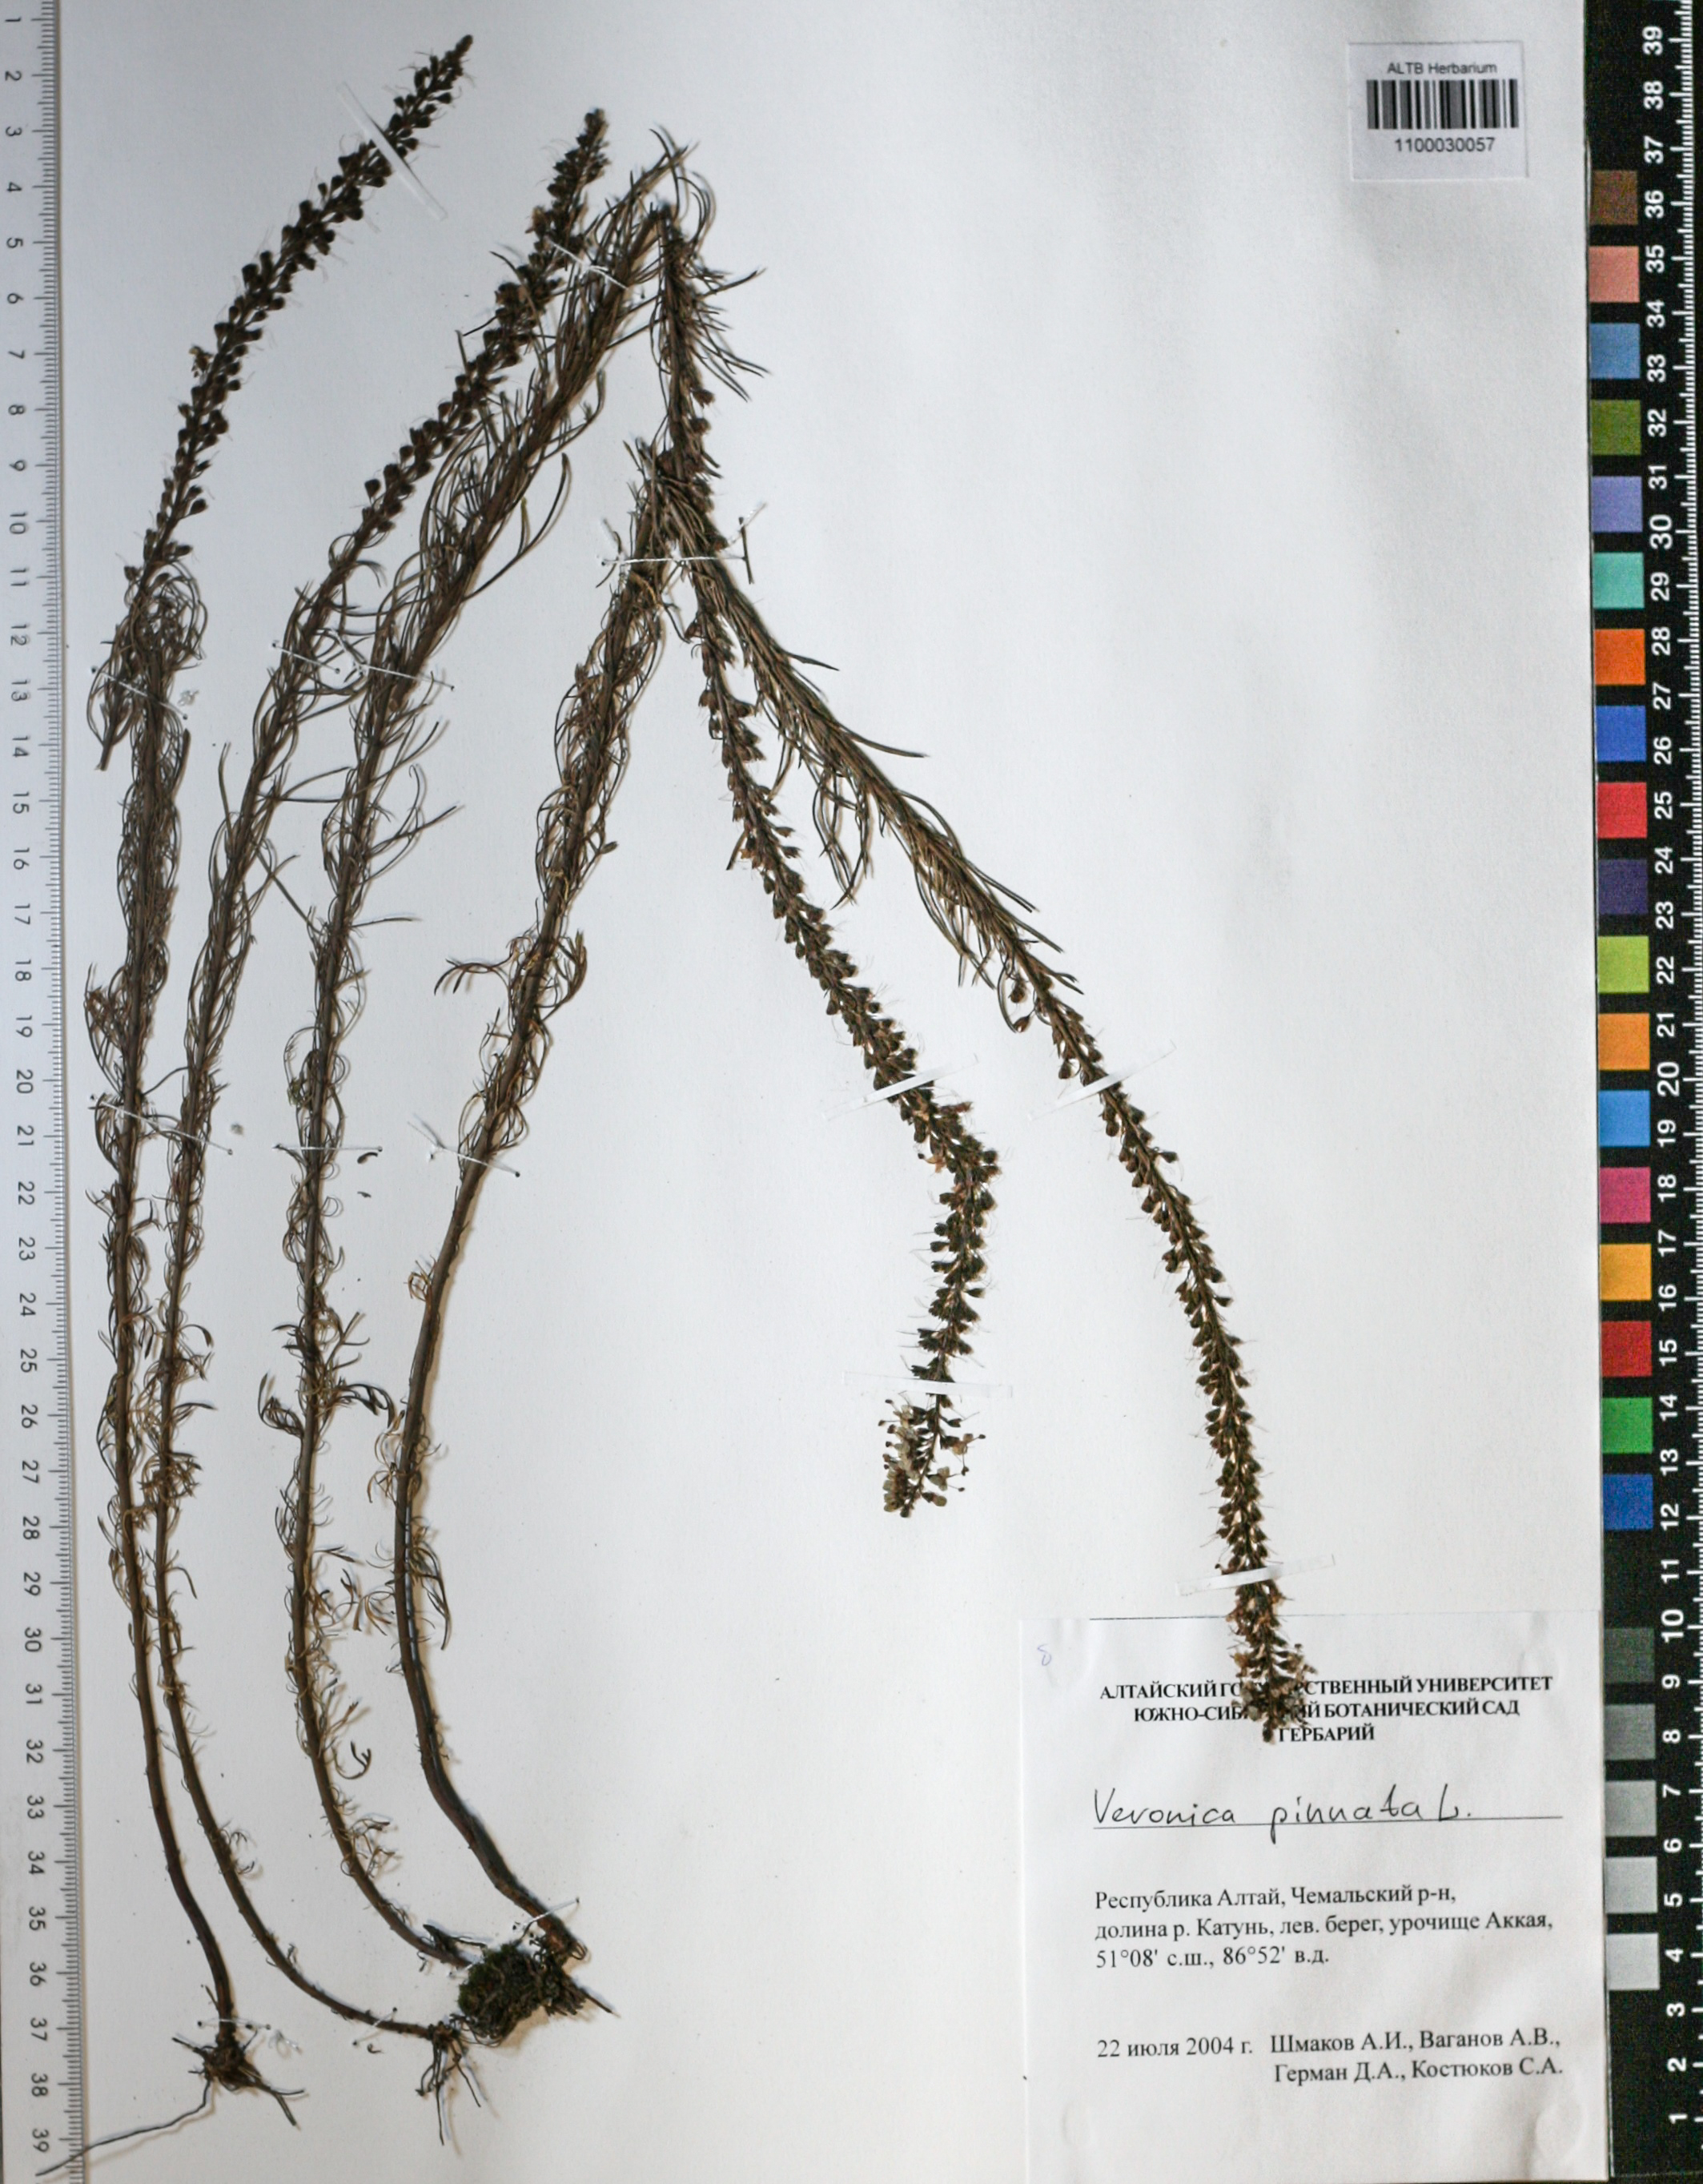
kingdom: Plantae
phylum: Tracheophyta
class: Magnoliopsida
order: Lamiales
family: Plantaginaceae
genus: Veronica
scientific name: Veronica pinnata
